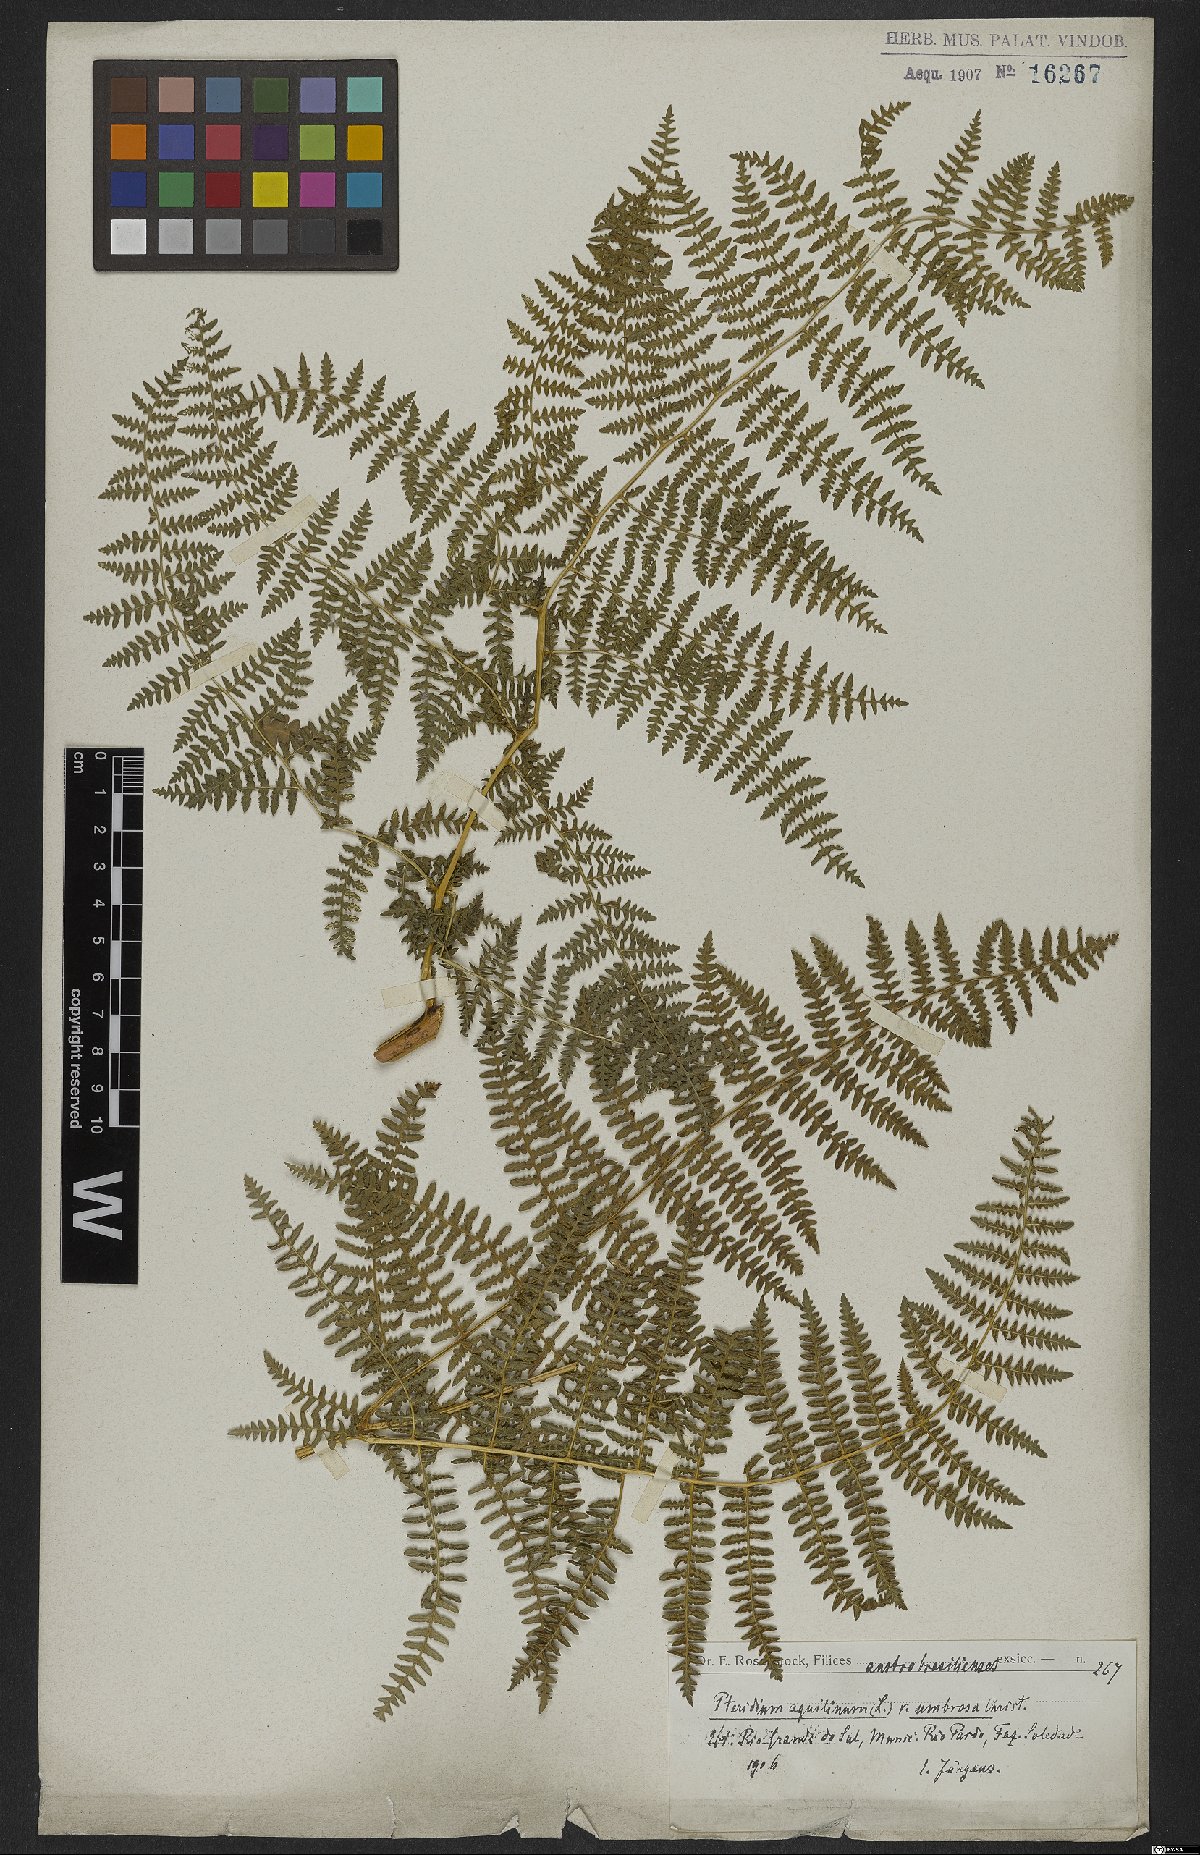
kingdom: Plantae
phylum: Tracheophyta
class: Polypodiopsida
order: Polypodiales
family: Dennstaedtiaceae
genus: Pteridium
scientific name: Pteridium aquilinum
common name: Bracken
